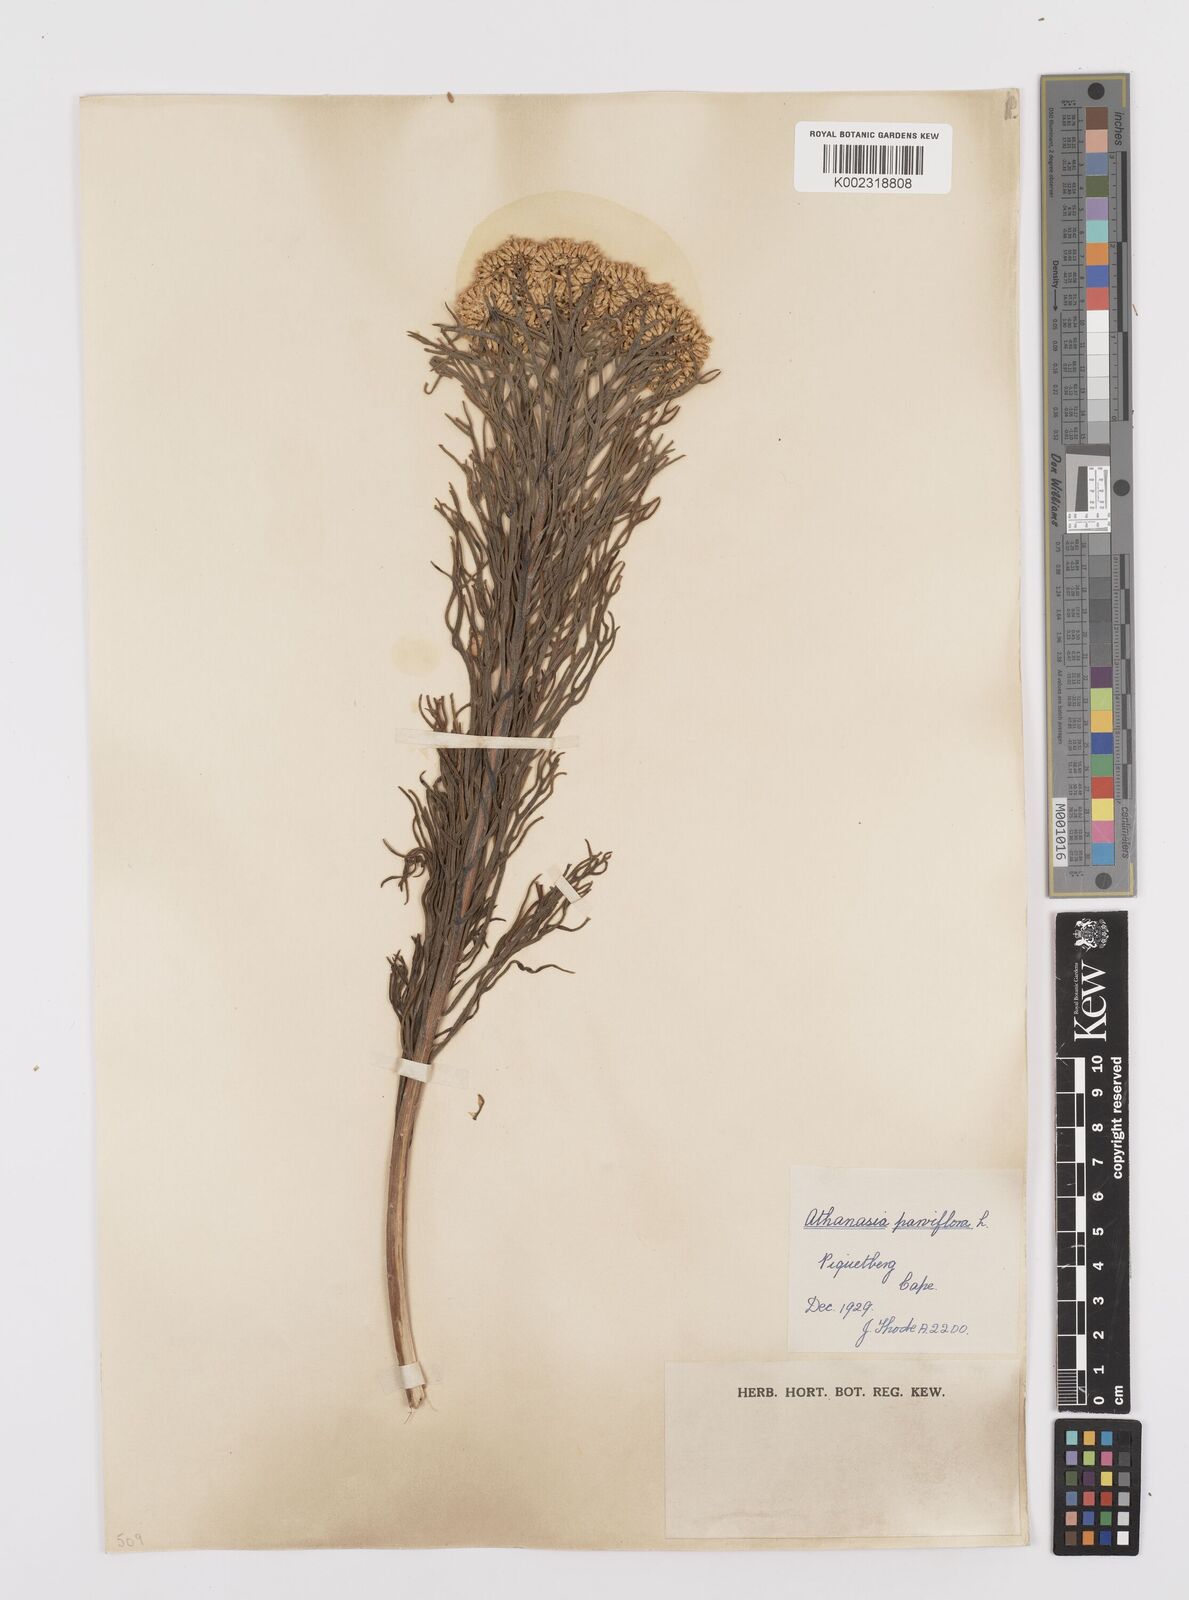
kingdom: Plantae
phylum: Tracheophyta
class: Magnoliopsida
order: Asterales
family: Asteraceae
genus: Hymenolepis
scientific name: Hymenolepis crithmifolia
